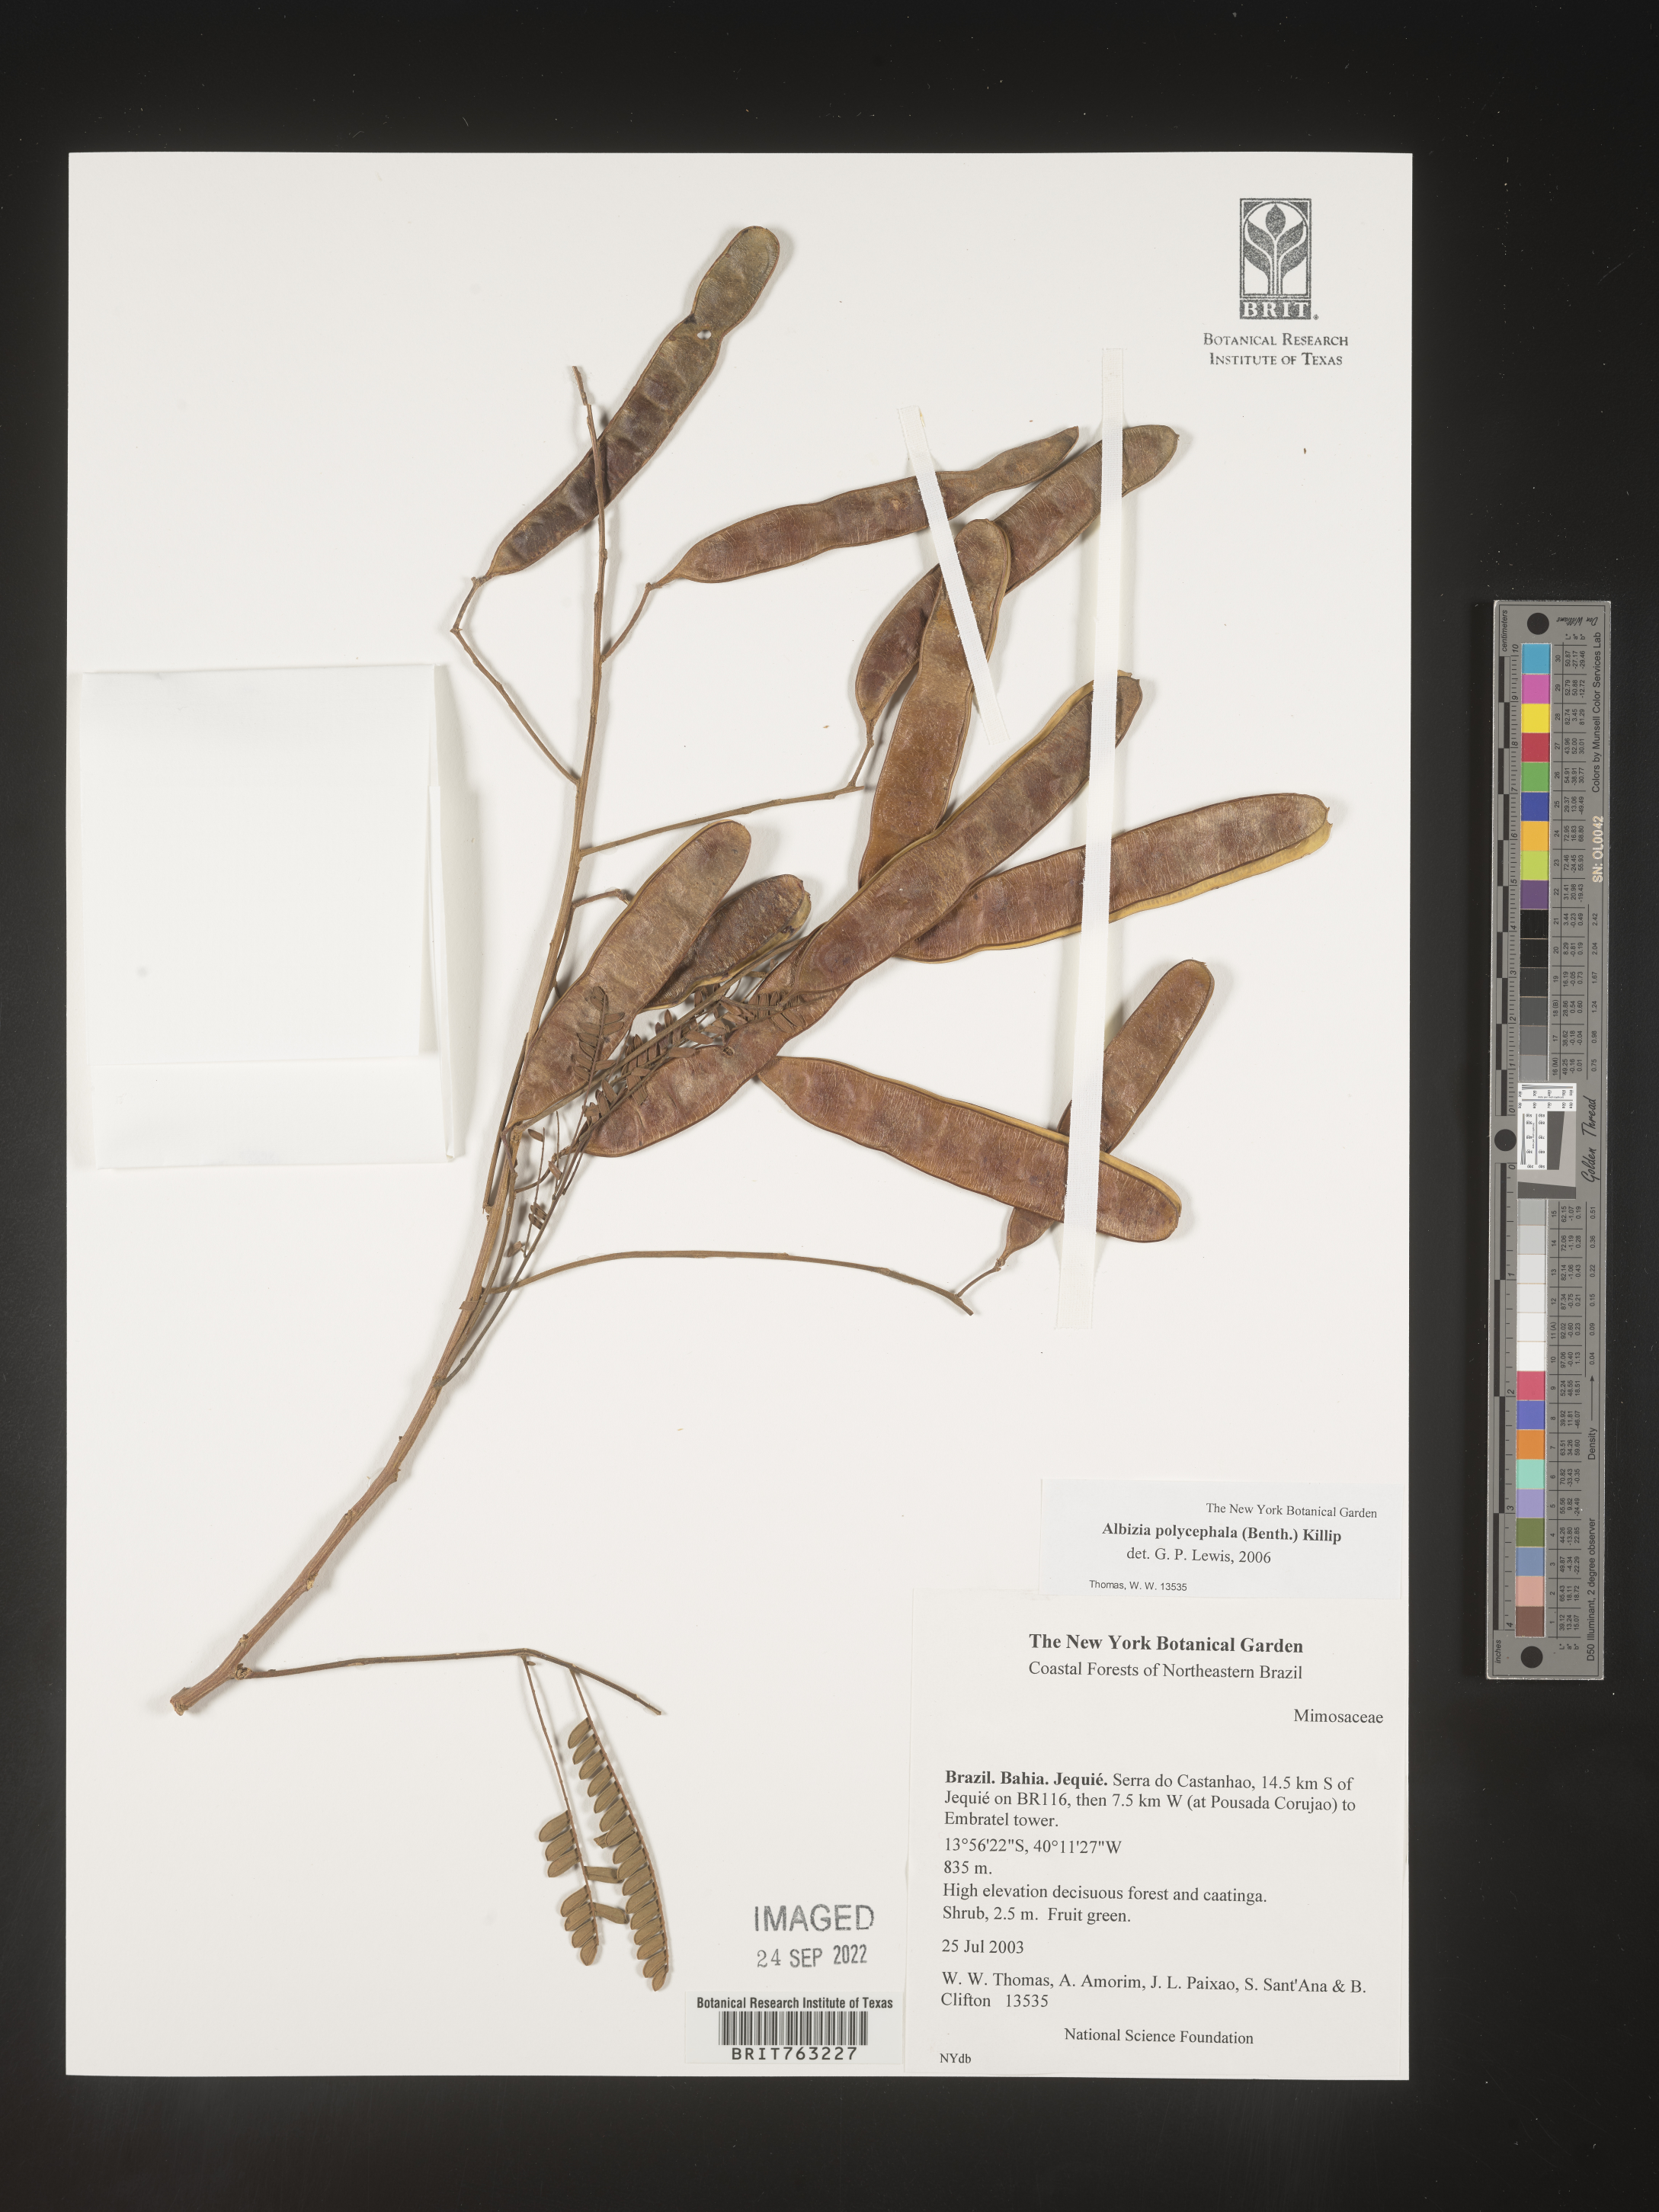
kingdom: Plantae
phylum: Tracheophyta
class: Magnoliopsida
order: Fabales
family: Fabaceae
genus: Albizia
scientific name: Albizia polycephala
